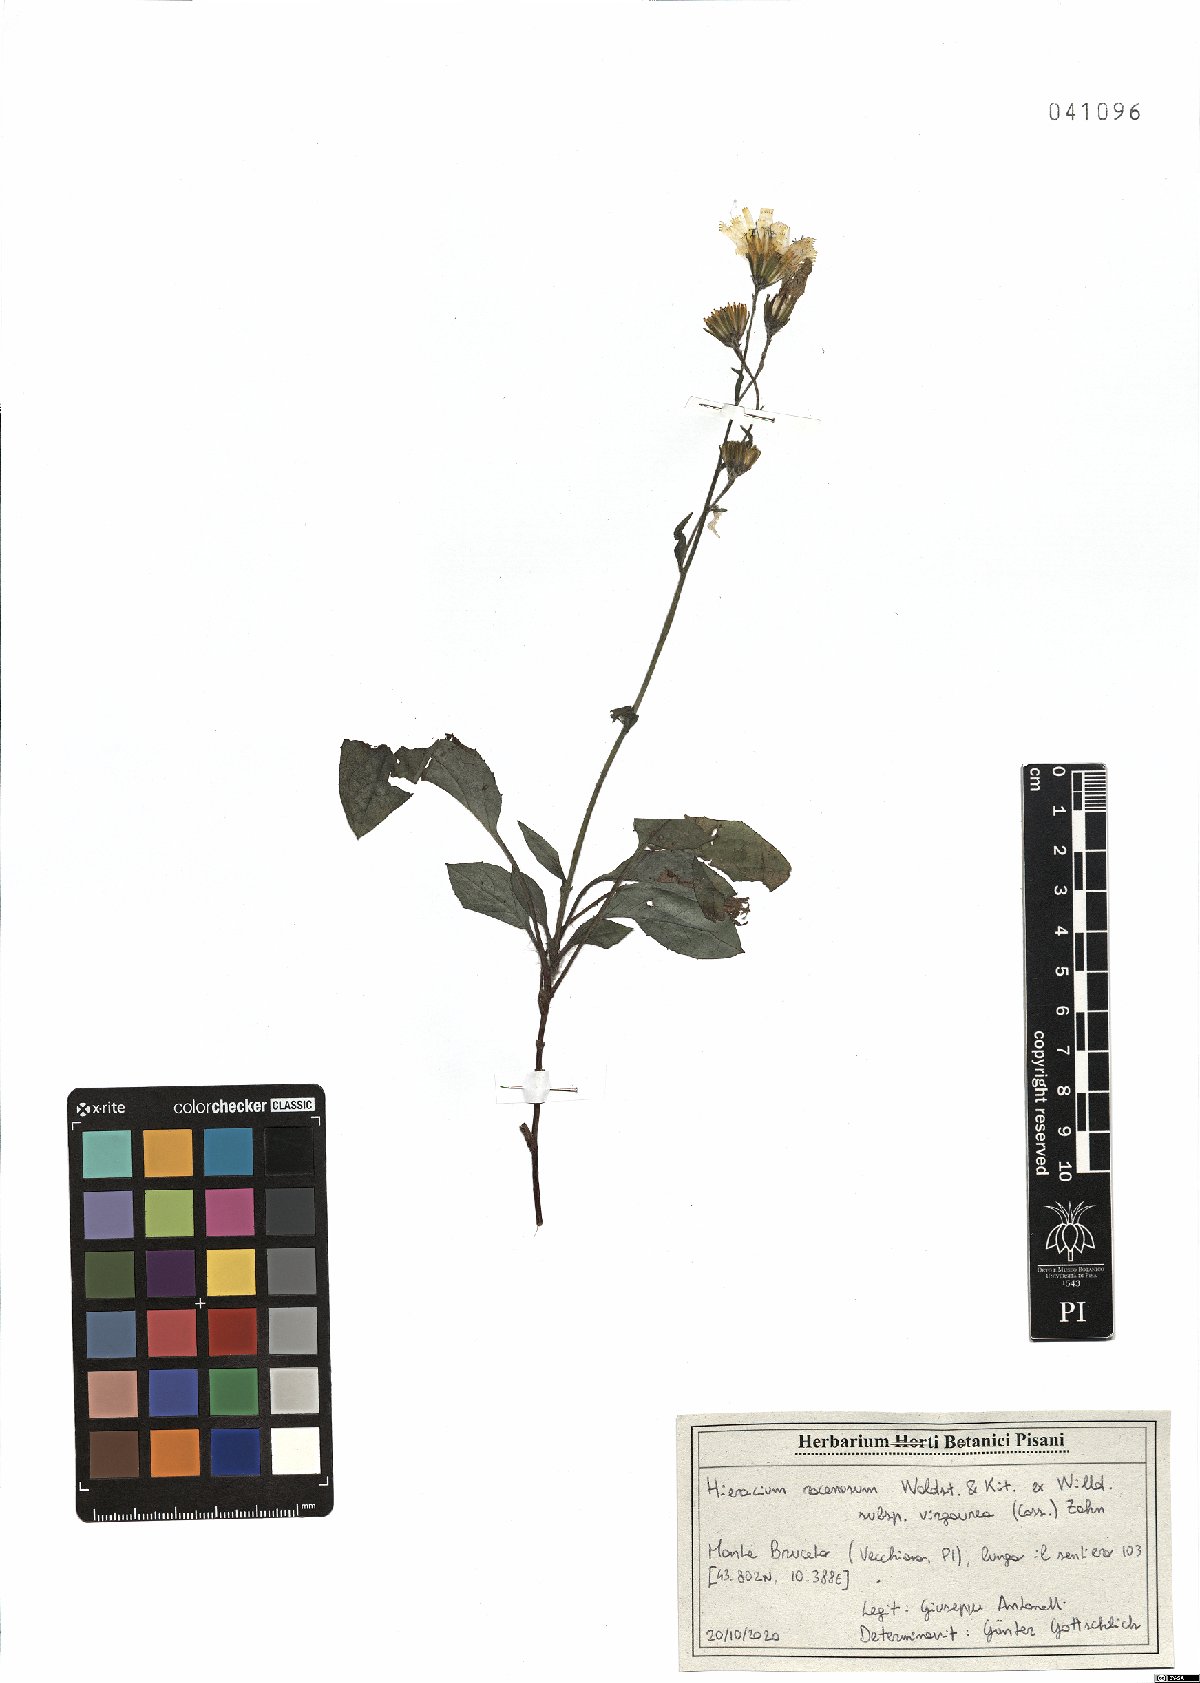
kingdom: Plantae
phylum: Tracheophyta
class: Magnoliopsida
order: Asterales
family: Asteraceae
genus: Hieracium
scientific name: Hieracium racemosum
